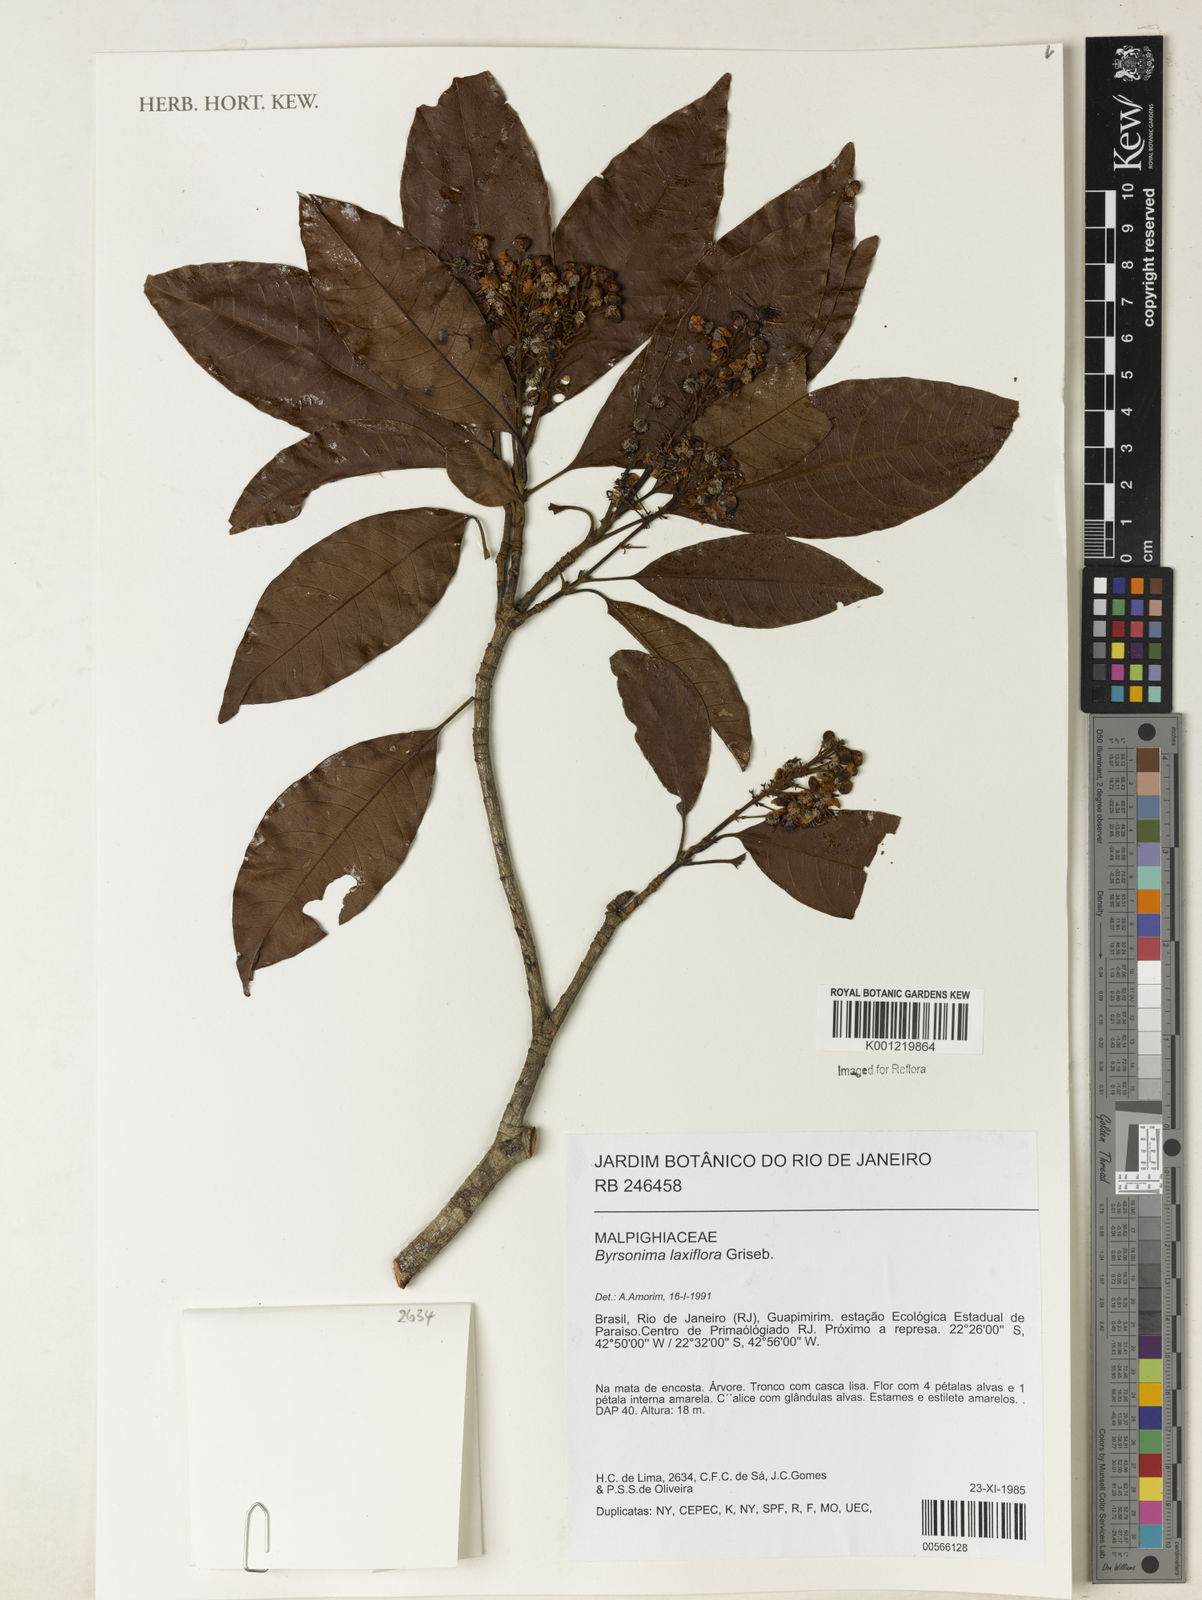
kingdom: Plantae
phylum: Tracheophyta
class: Magnoliopsida
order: Malpighiales
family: Malpighiaceae
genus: Byrsonima
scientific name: Byrsonima laxiflora
